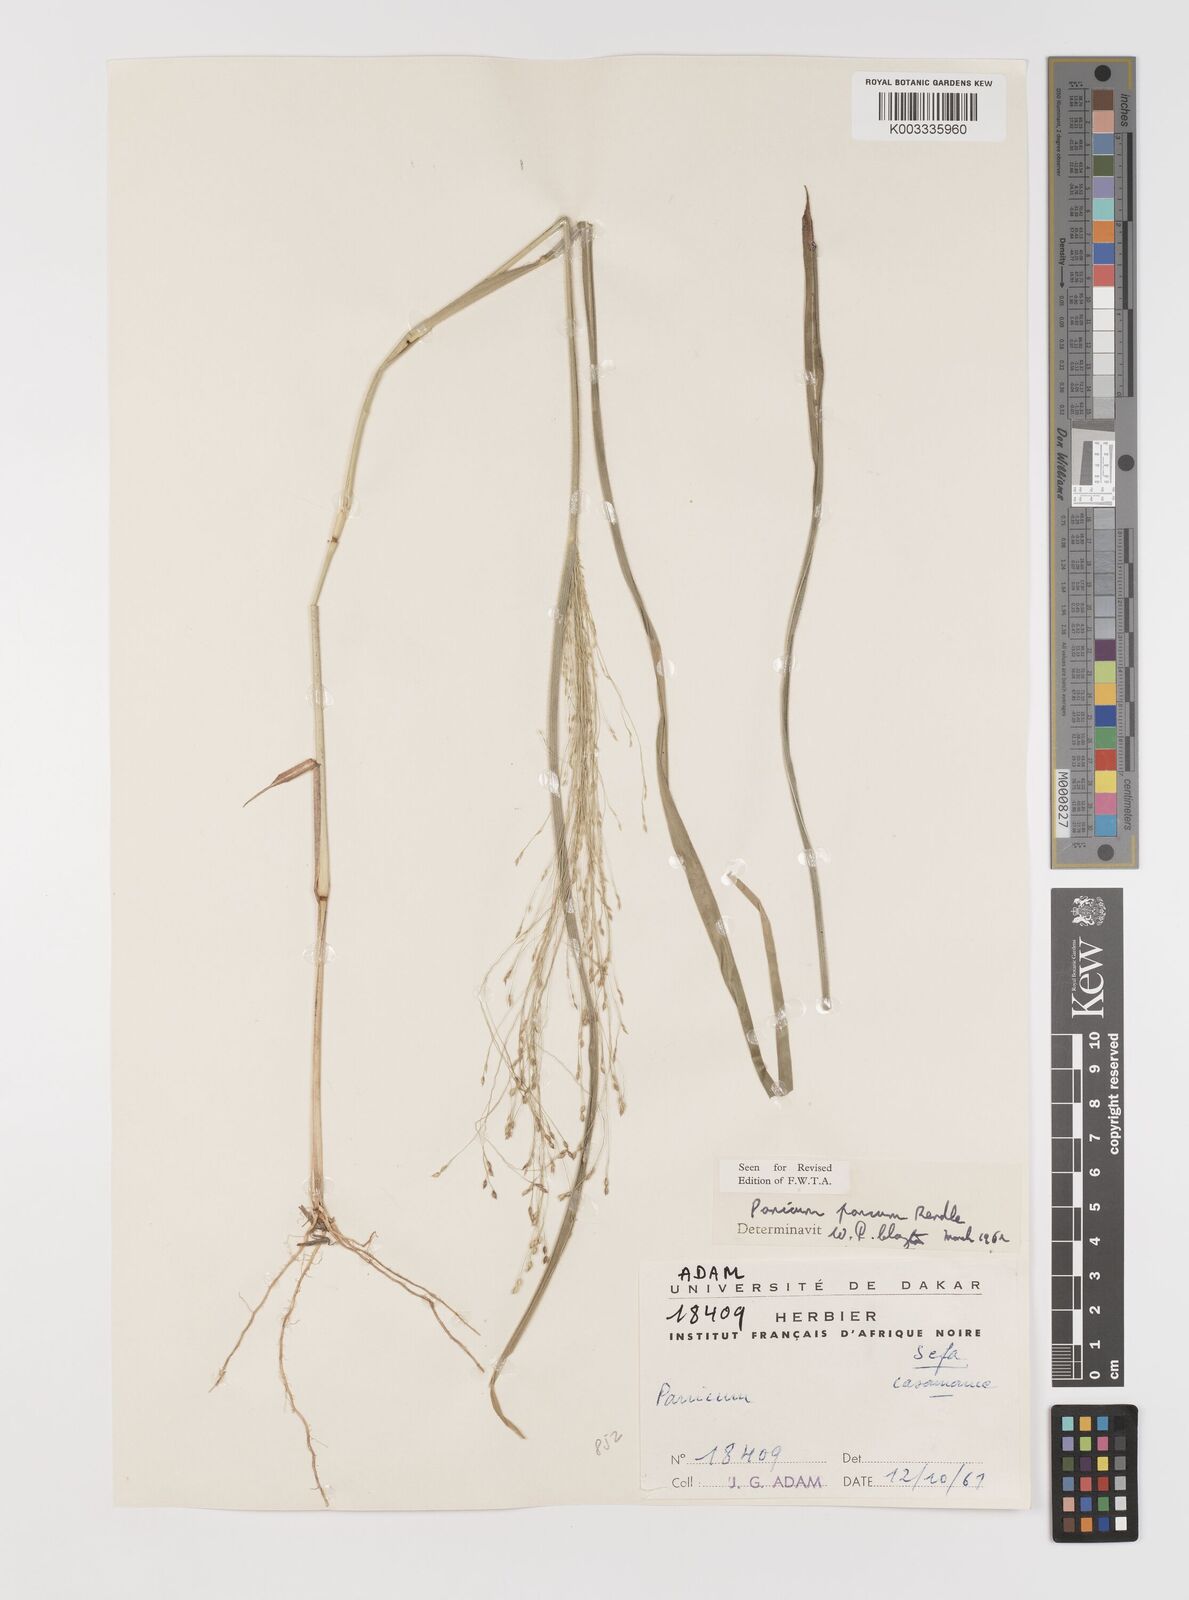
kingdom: Plantae
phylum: Tracheophyta
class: Liliopsida
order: Poales
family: Poaceae
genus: Panicum
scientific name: Panicum pansum
